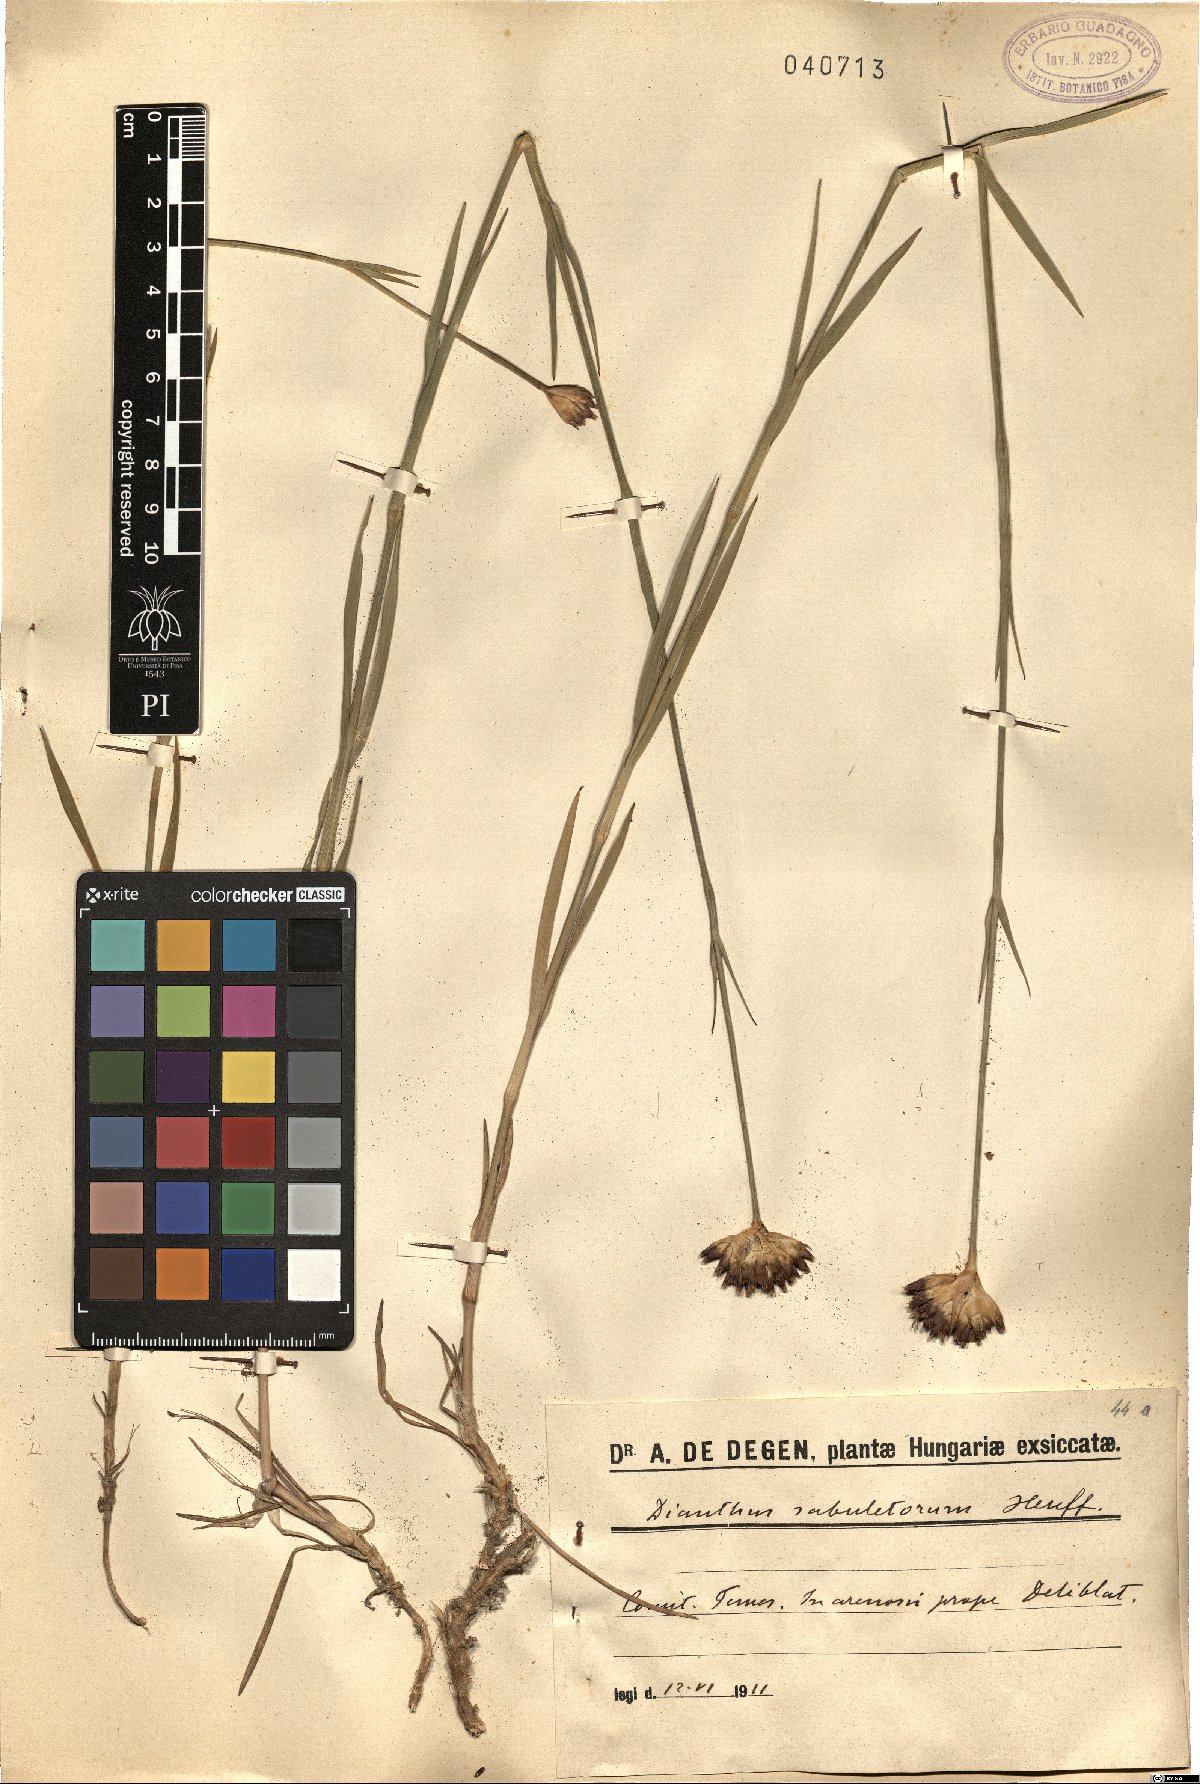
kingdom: Plantae
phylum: Tracheophyta
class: Magnoliopsida
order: Caryophyllales
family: Caryophyllaceae
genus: Dianthus
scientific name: Dianthus giganteiformis
